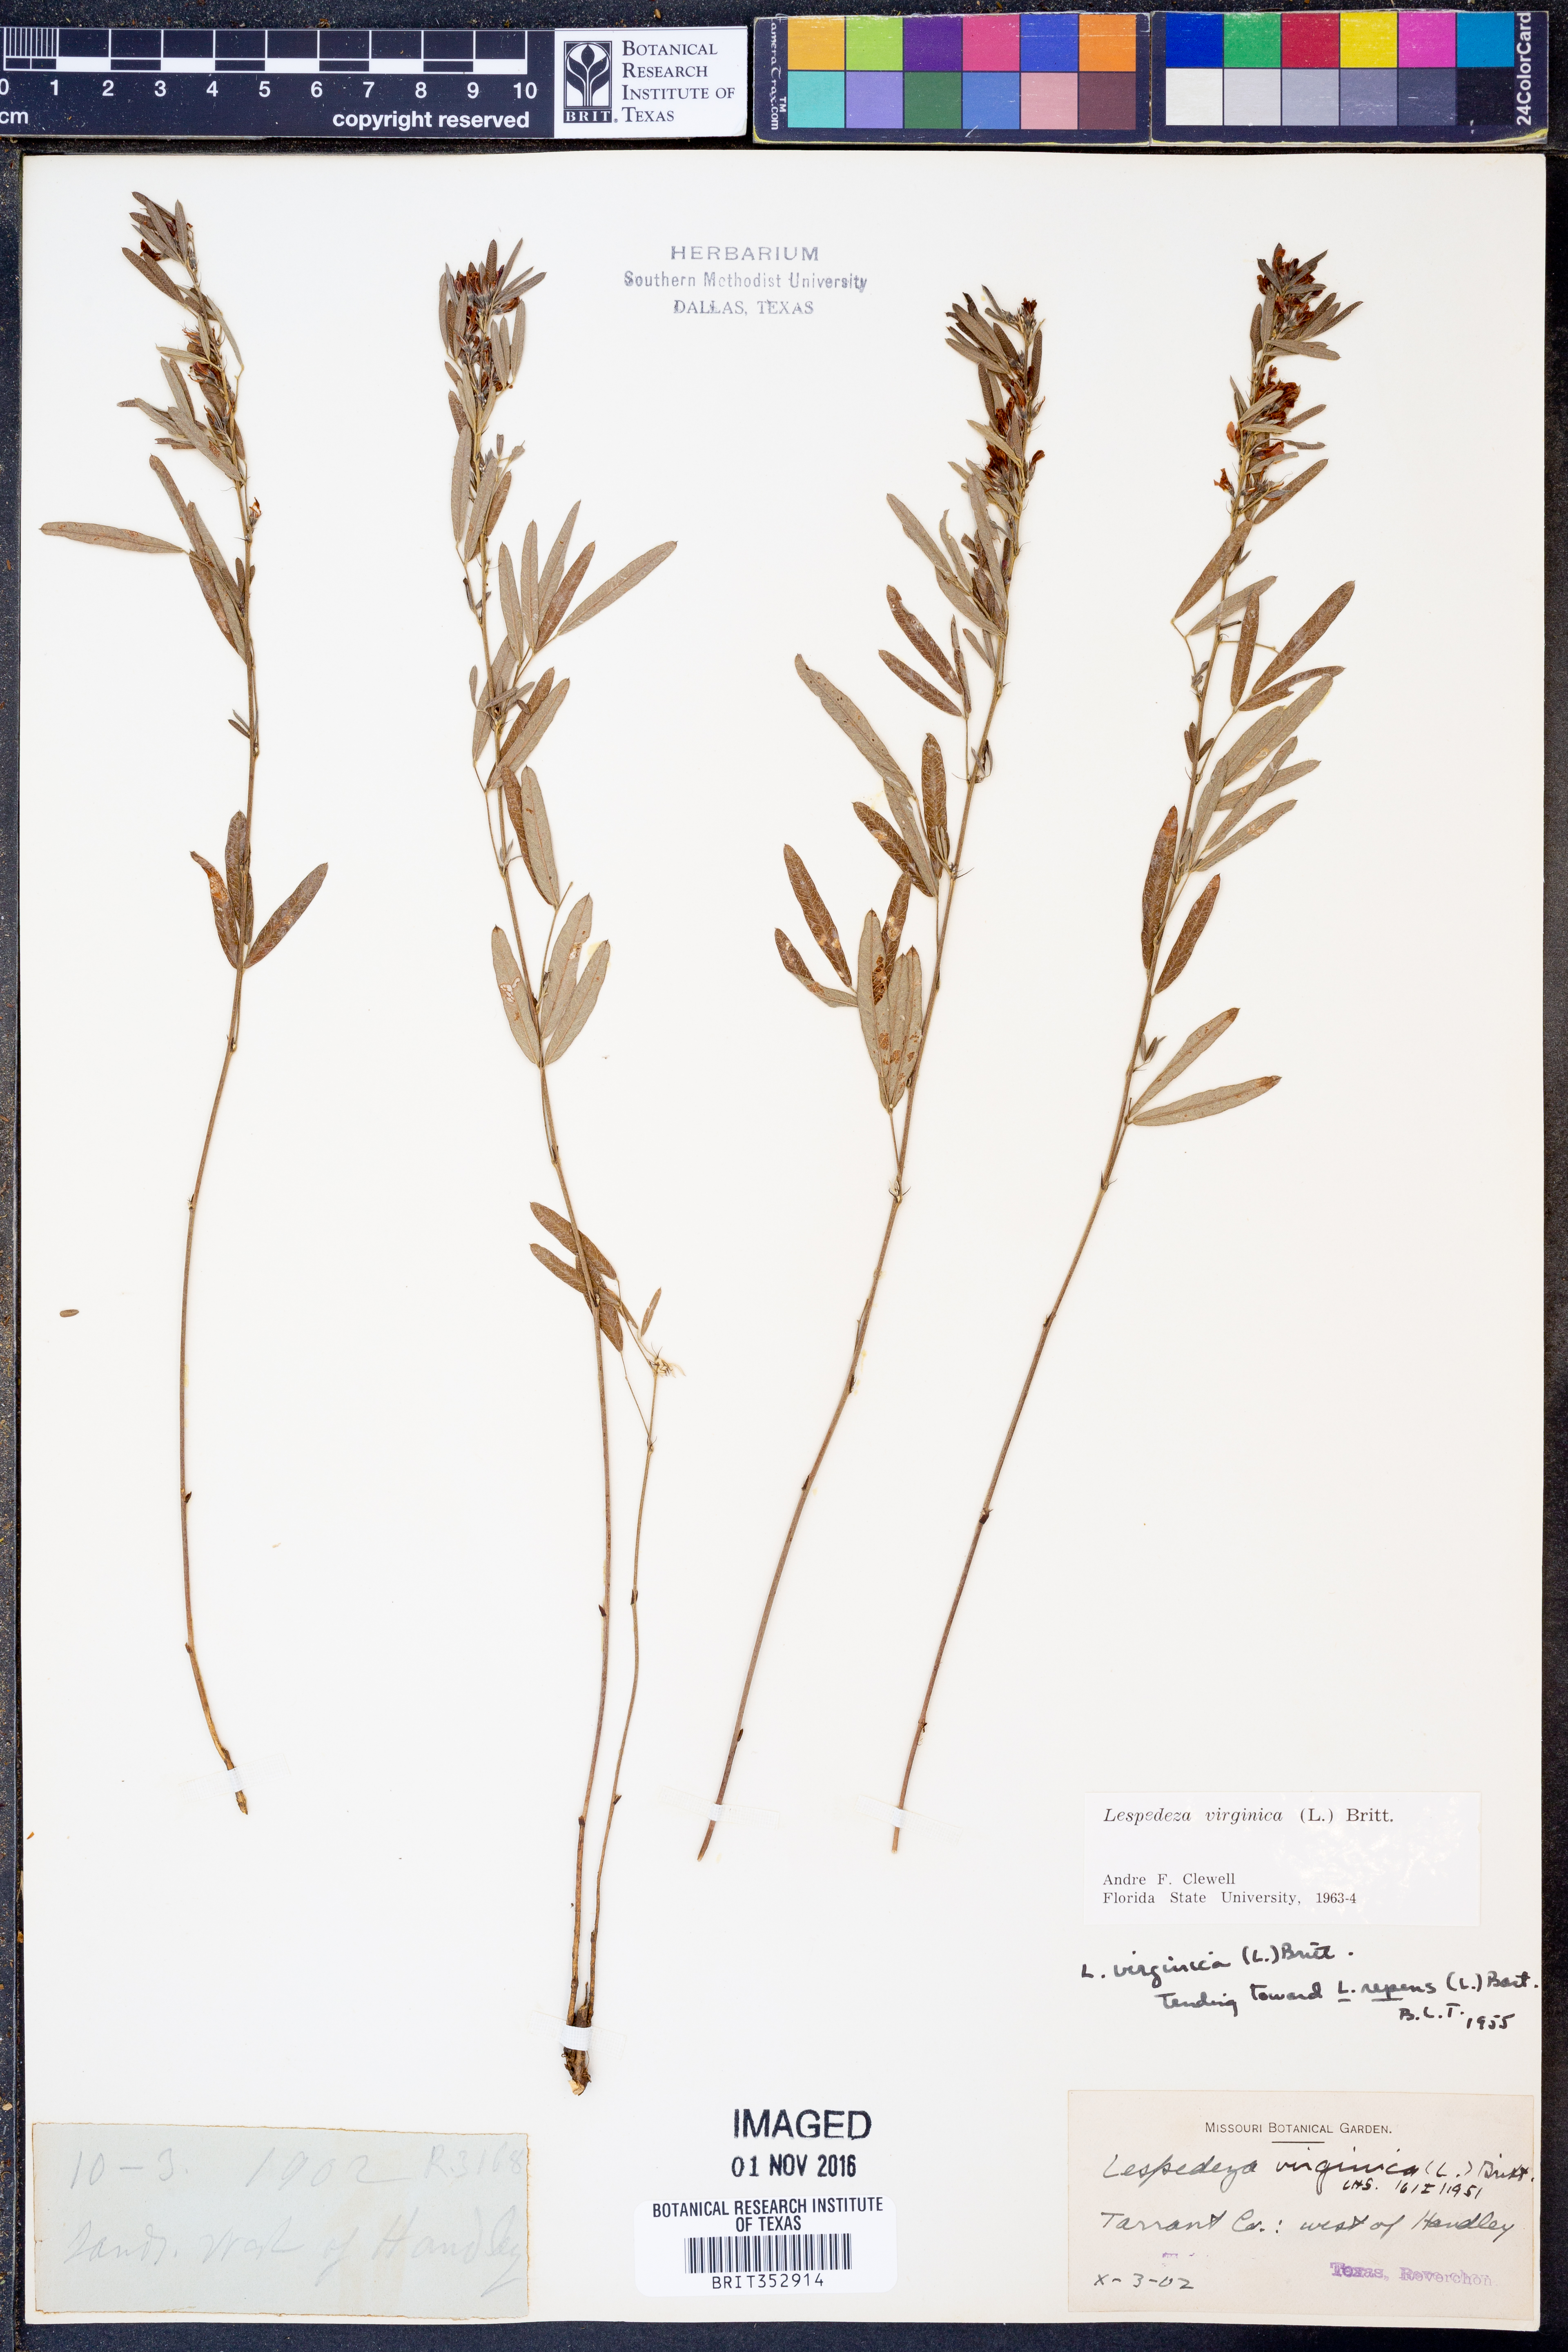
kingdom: Plantae
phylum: Tracheophyta
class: Magnoliopsida
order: Fabales
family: Fabaceae
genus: Lespedeza
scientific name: Lespedeza virginica
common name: Slender bush-clover
